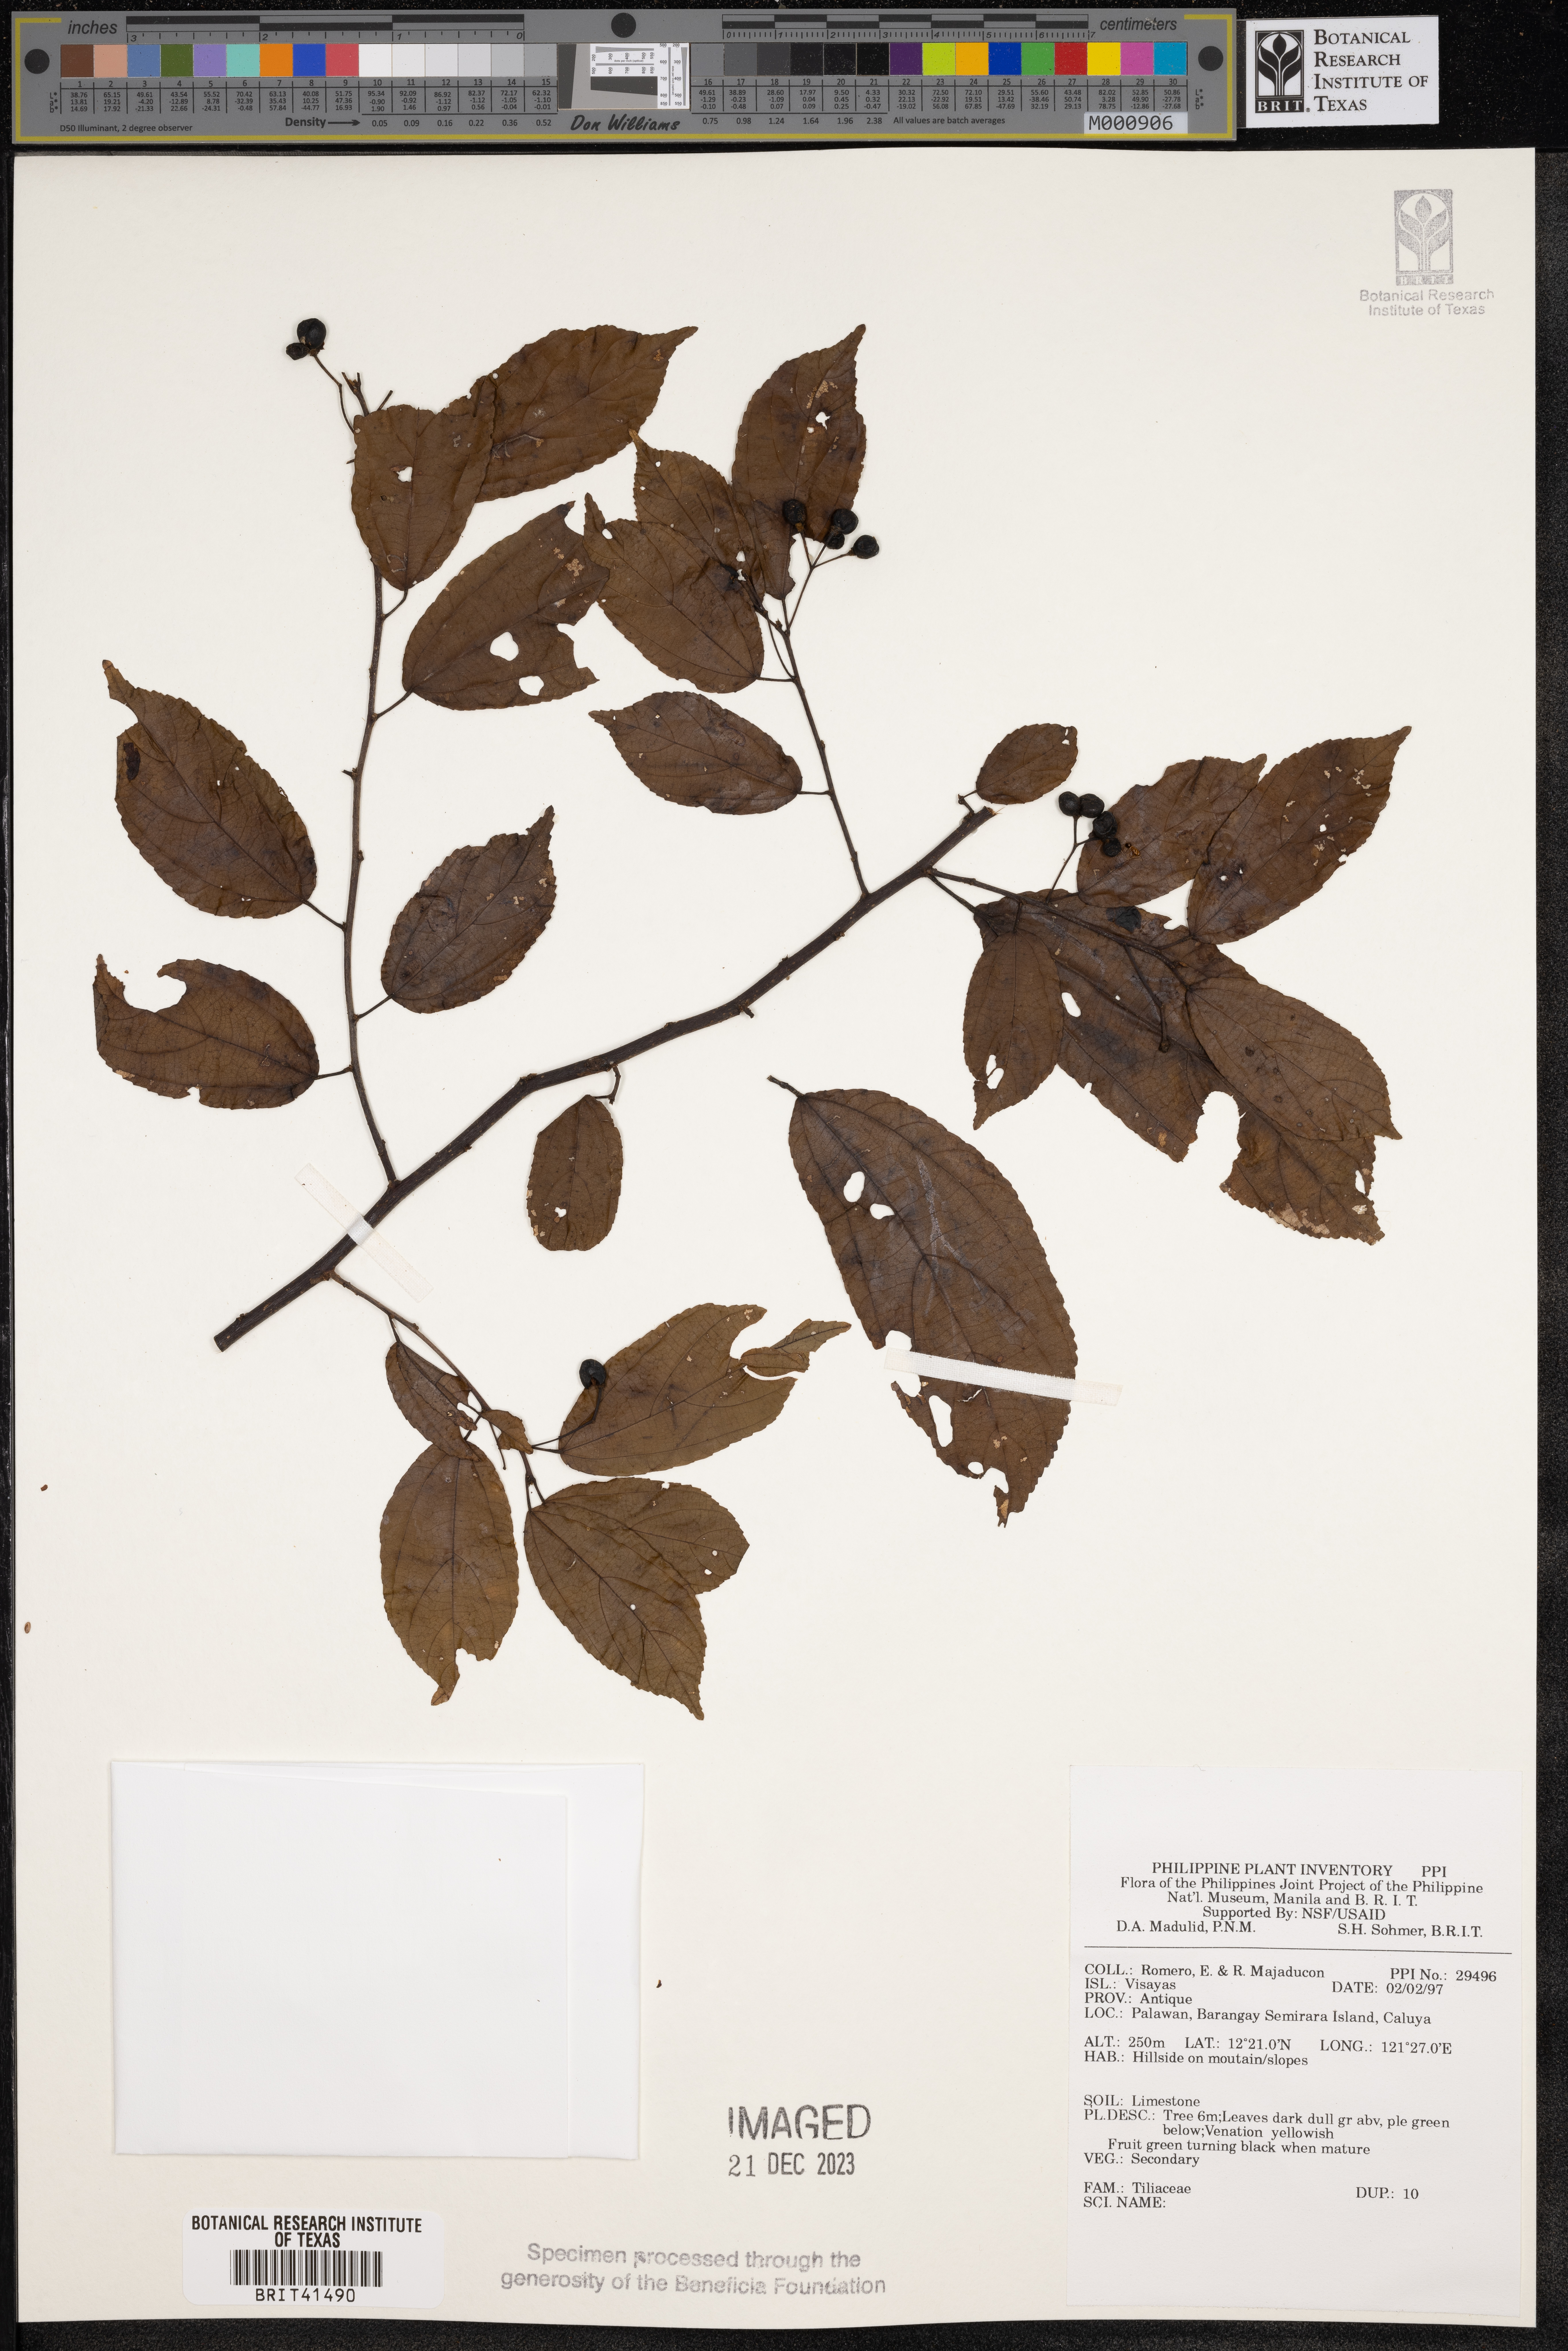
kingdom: Plantae
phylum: Tracheophyta
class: Magnoliopsida
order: Malvales
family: Tiliaceae
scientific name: Tiliaceae
